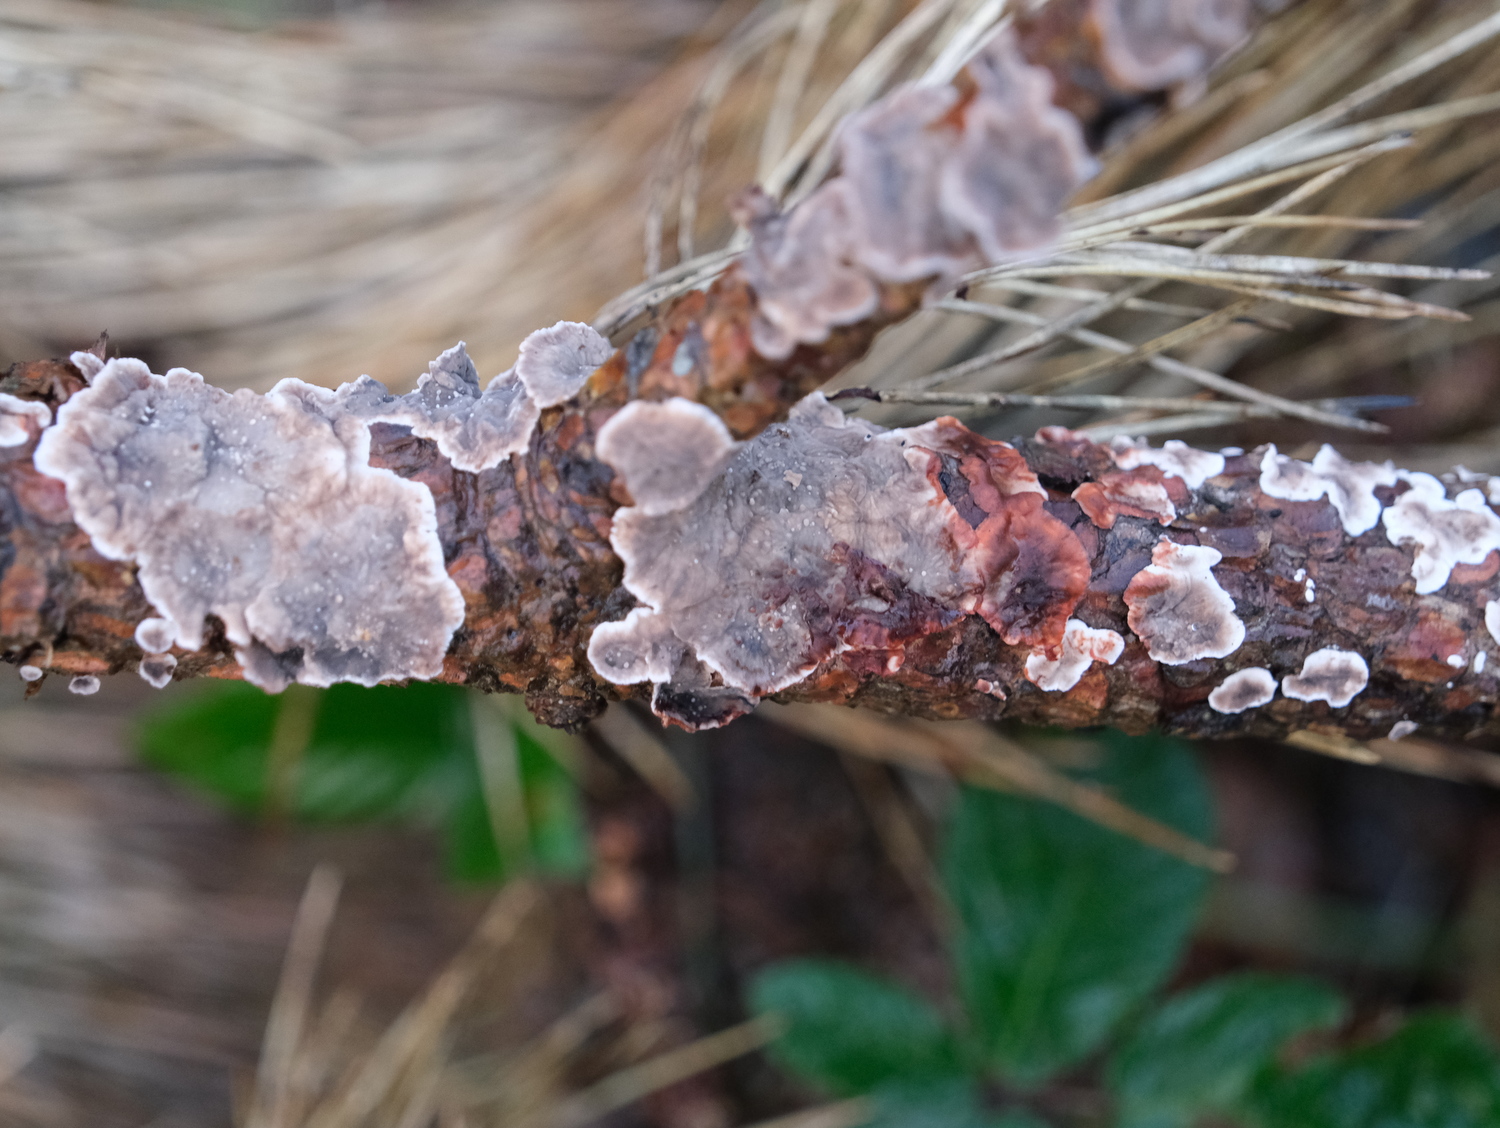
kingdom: Fungi
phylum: Basidiomycota
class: Agaricomycetes
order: Russulales
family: Stereaceae
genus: Stereum
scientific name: Stereum sanguinolentum
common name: blødende lædersvamp
